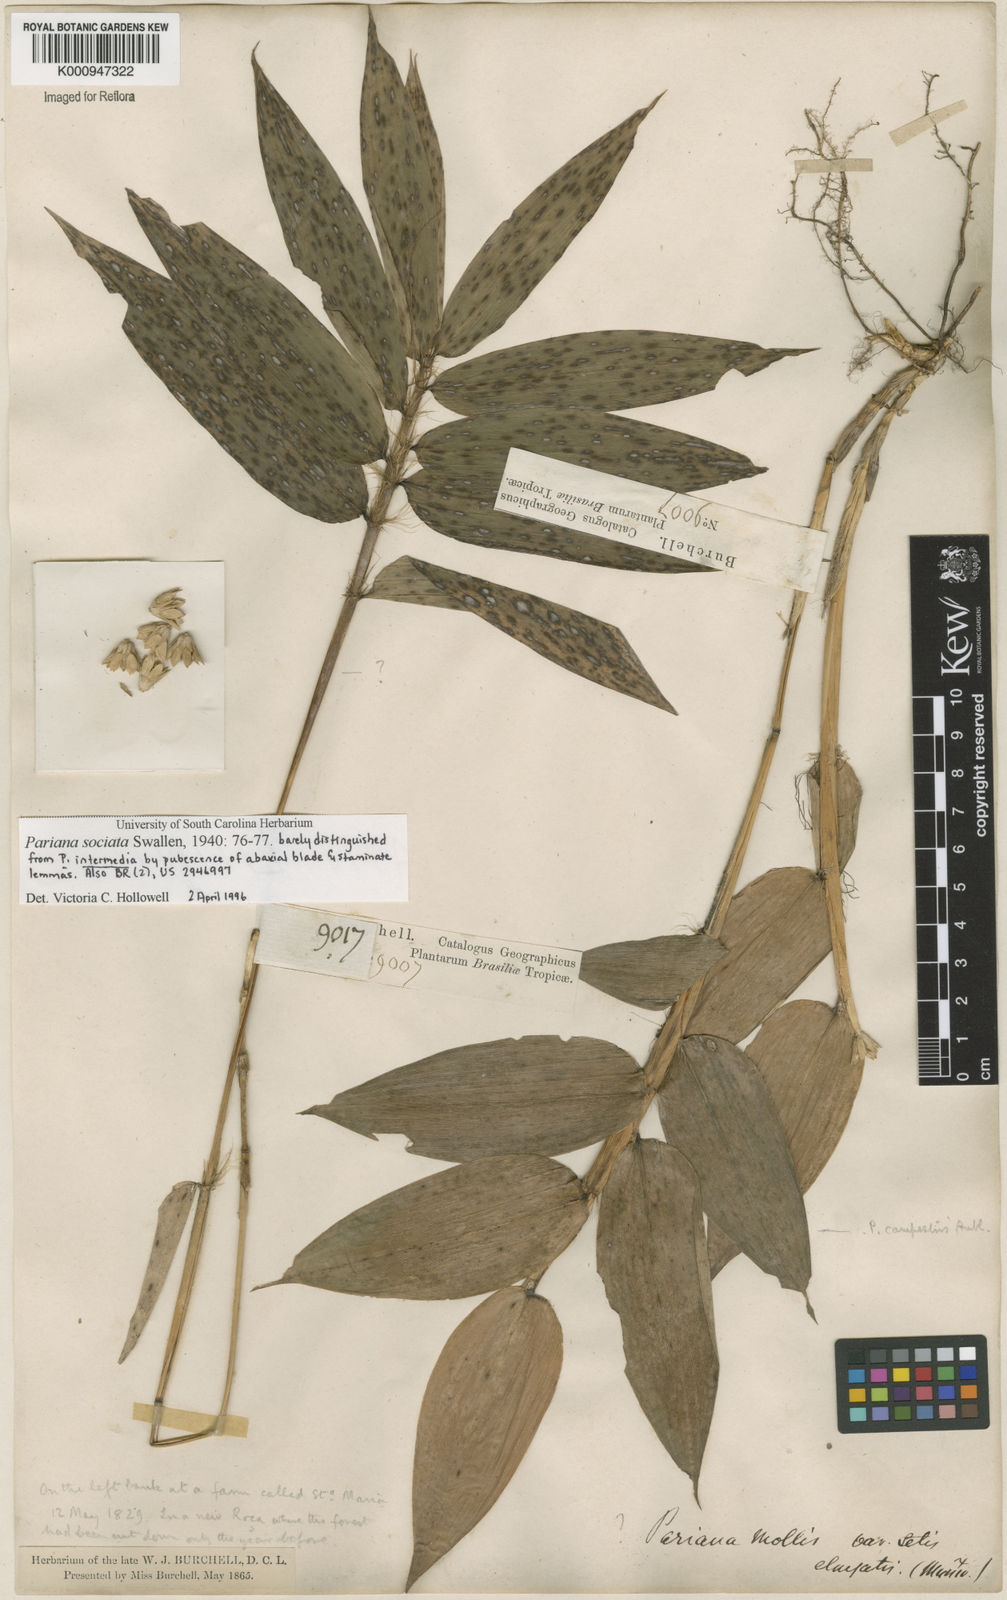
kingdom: Plantae
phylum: Tracheophyta
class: Liliopsida
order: Poales
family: Poaceae
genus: Pariana
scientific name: Pariana sociata
